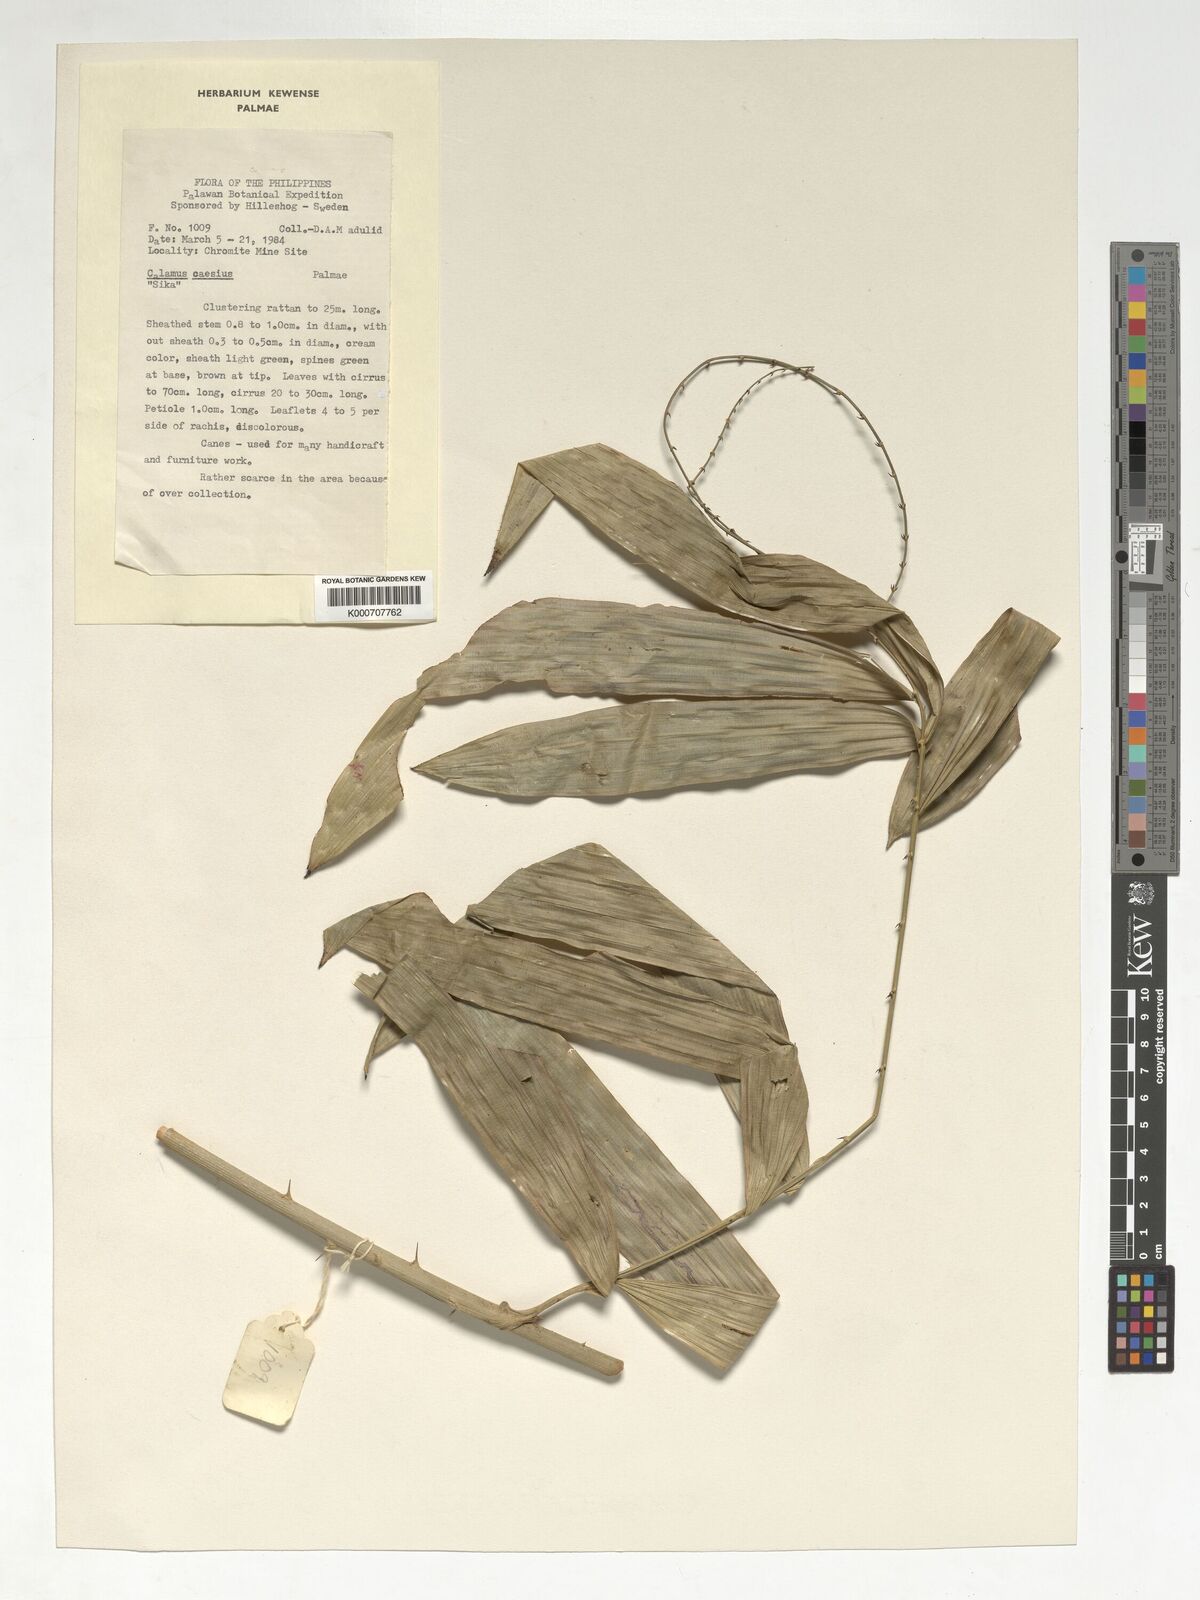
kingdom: Plantae
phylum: Tracheophyta
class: Liliopsida
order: Arecales
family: Arecaceae
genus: Calamus
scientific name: Calamus caesius
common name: Rattan palm
